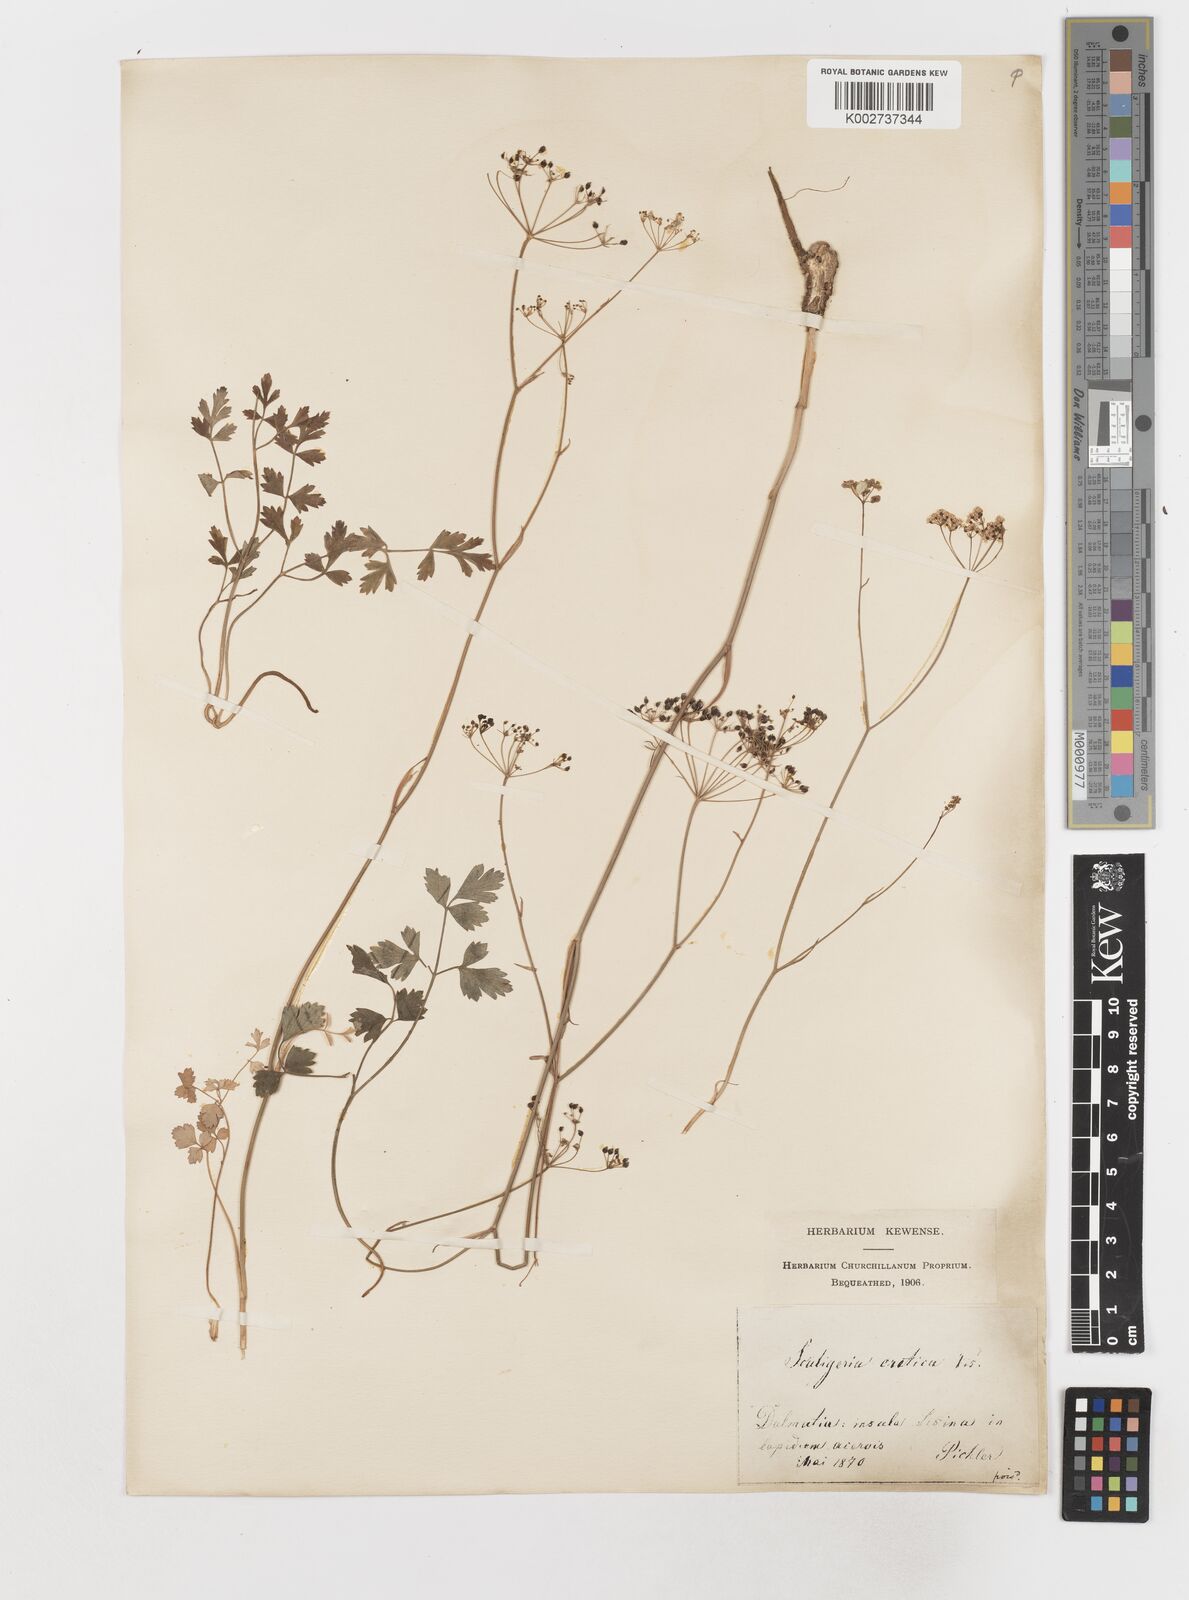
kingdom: Plantae
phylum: Tracheophyta
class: Magnoliopsida
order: Apiales
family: Apiaceae
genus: Scaligeria
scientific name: Scaligeria napiformis
